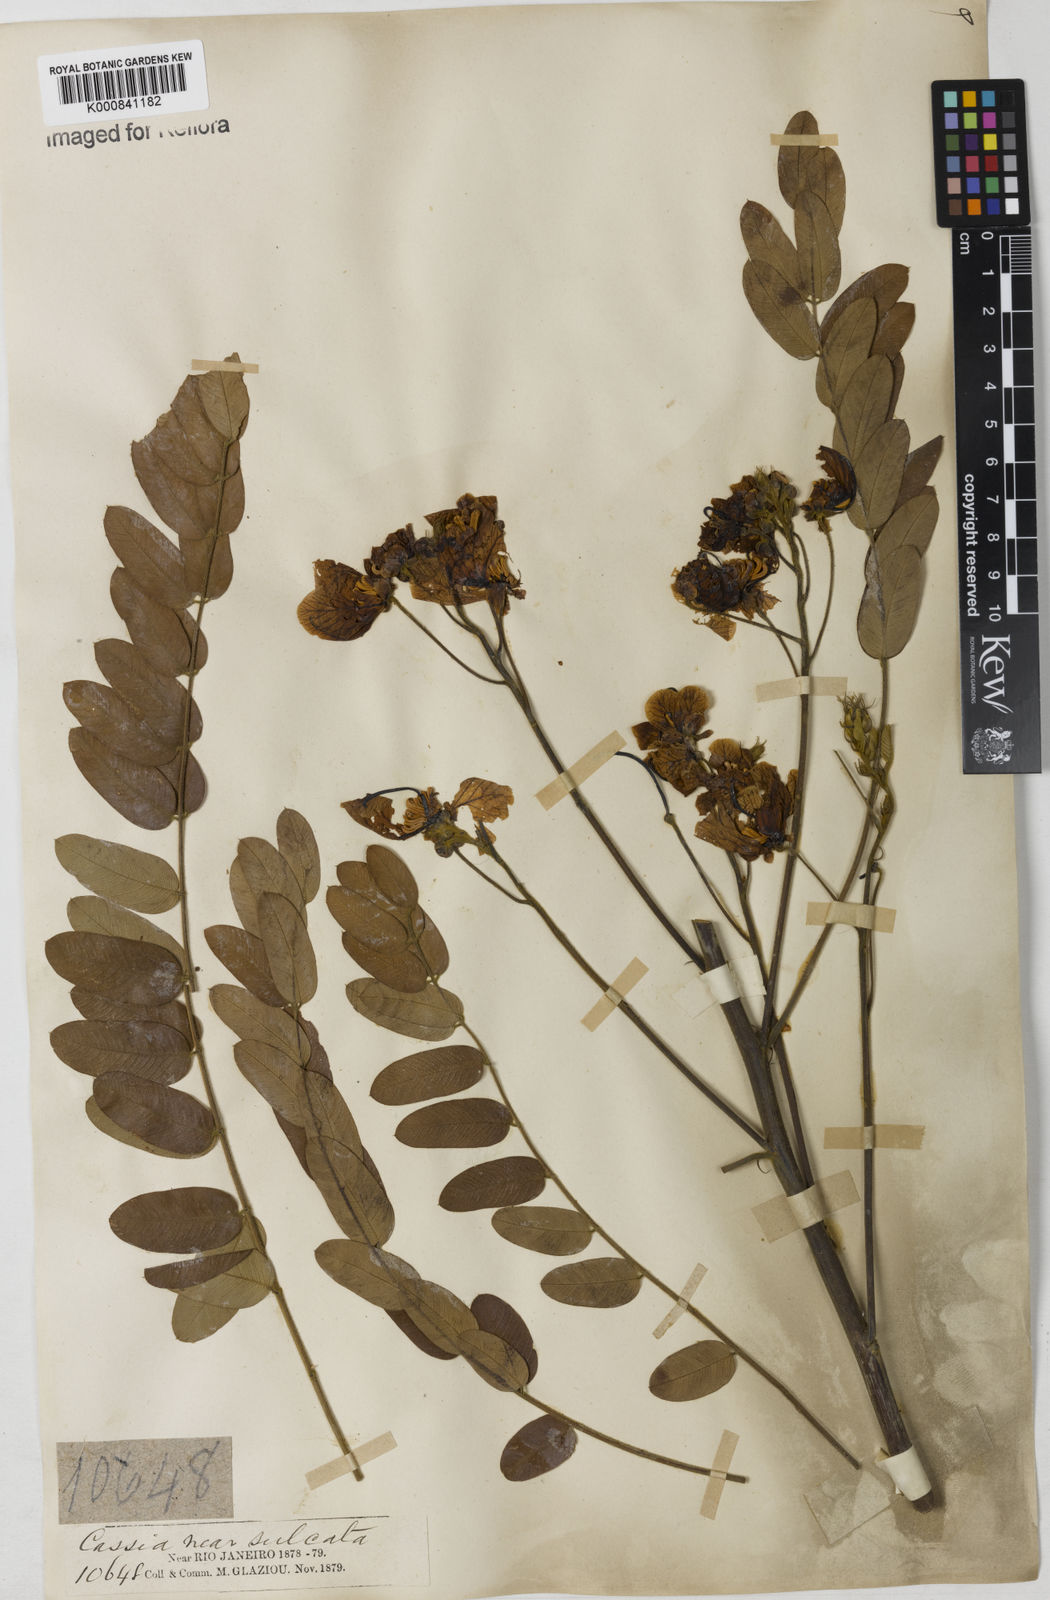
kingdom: Plantae
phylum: Tracheophyta
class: Magnoliopsida
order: Fabales
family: Fabaceae
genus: Senna
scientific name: Senna spectabilis
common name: Casia amarilla
